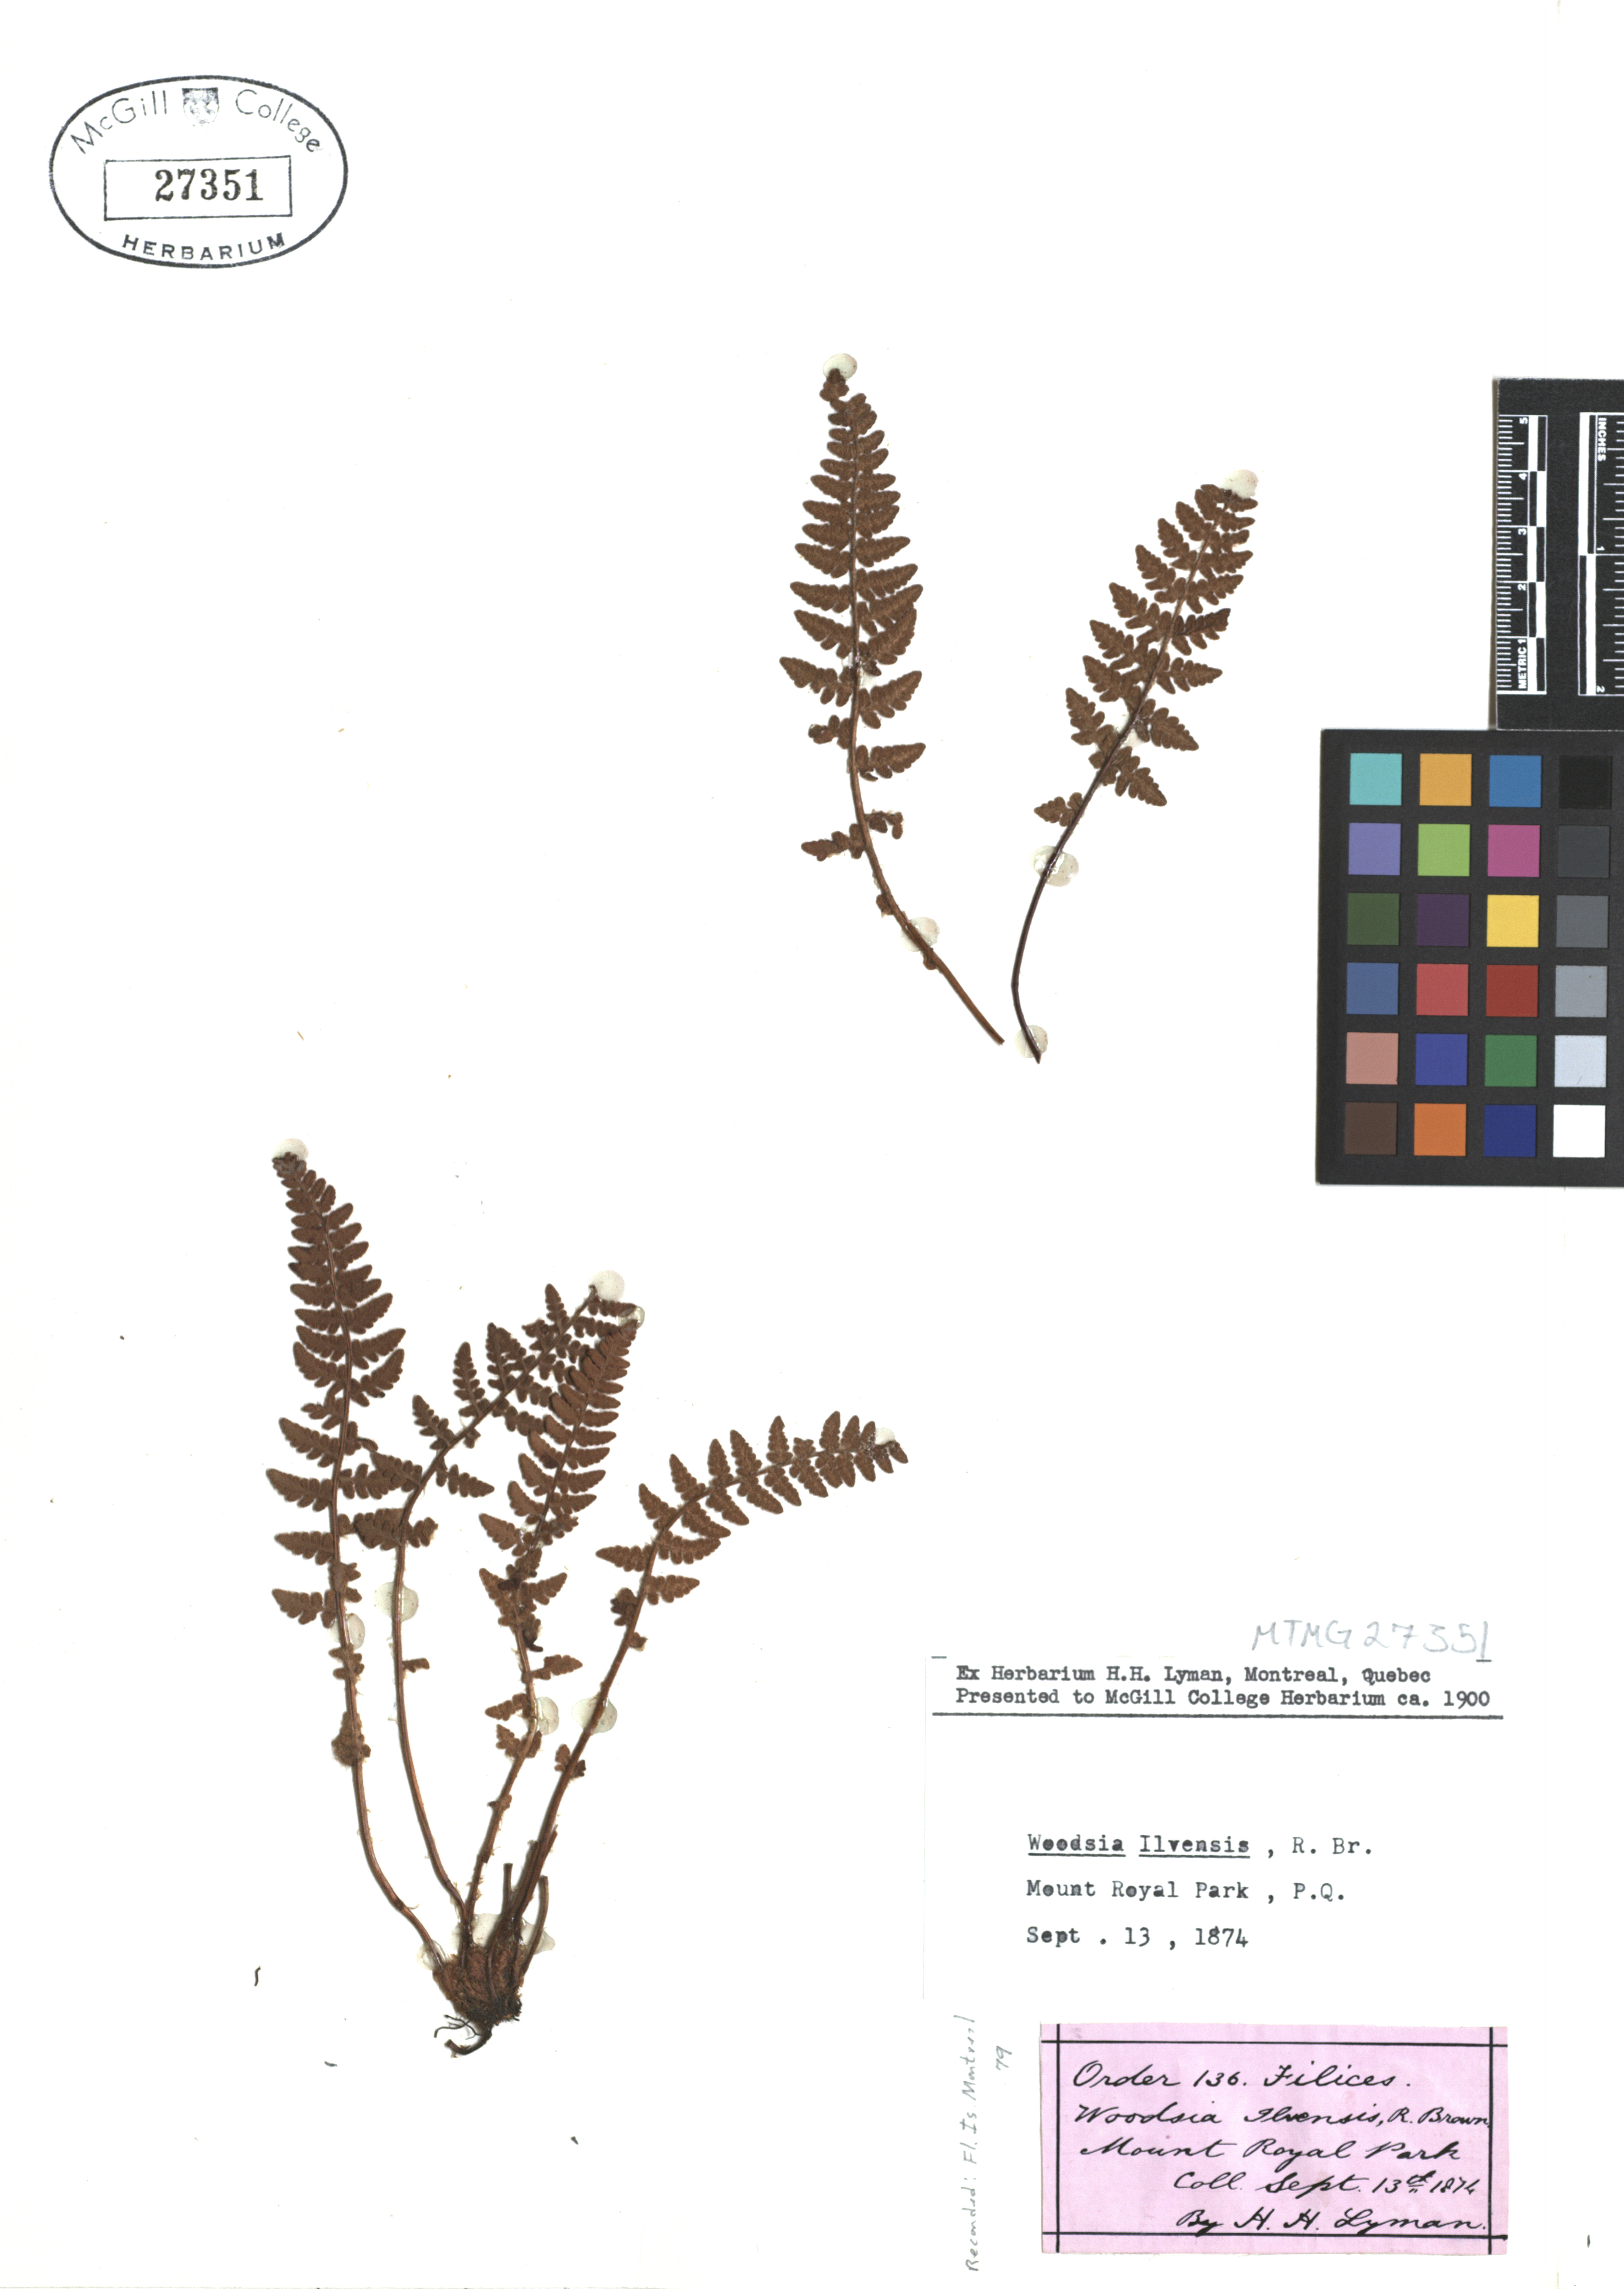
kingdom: Plantae
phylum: Tracheophyta
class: Polypodiopsida
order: Polypodiales
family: Woodsiaceae
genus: Woodsia
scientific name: Woodsia ilvensis
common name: Fragrant woodsia
